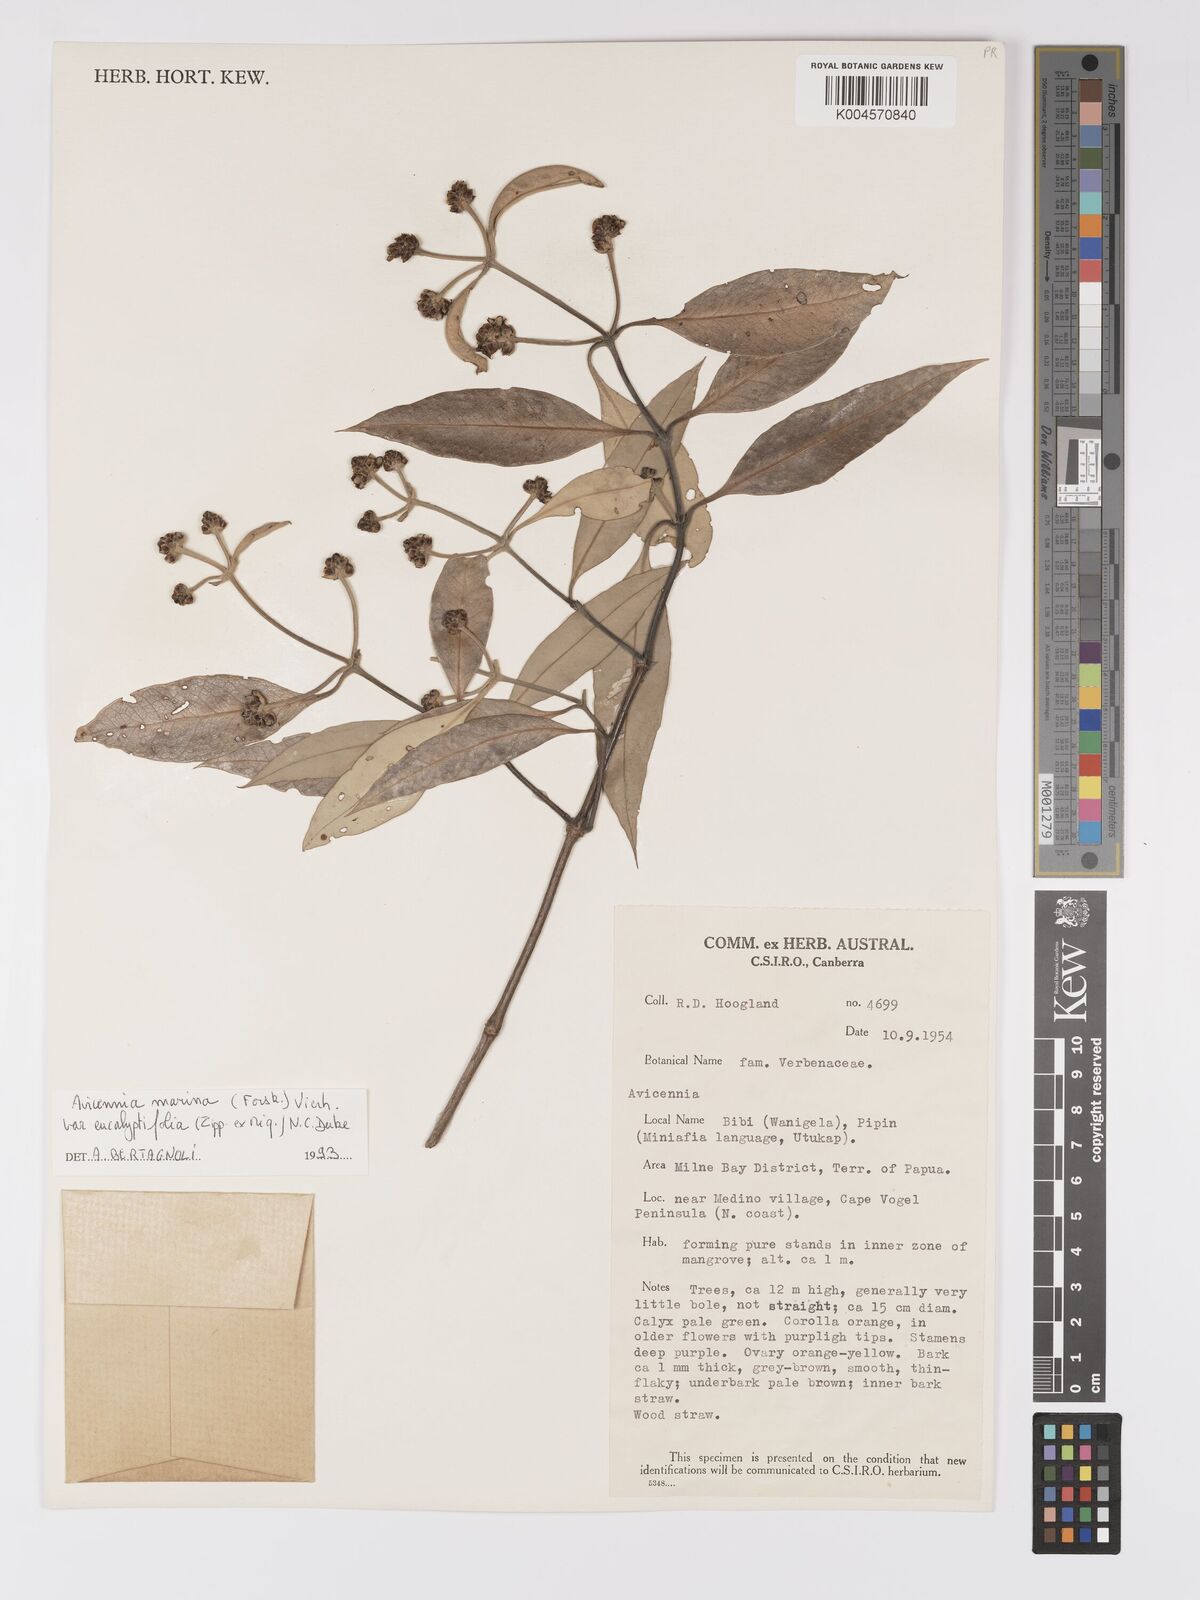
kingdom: Plantae
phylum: Tracheophyta
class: Magnoliopsida
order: Lamiales
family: Acanthaceae
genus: Avicennia
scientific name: Avicennia marina
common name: Gray mangrove
